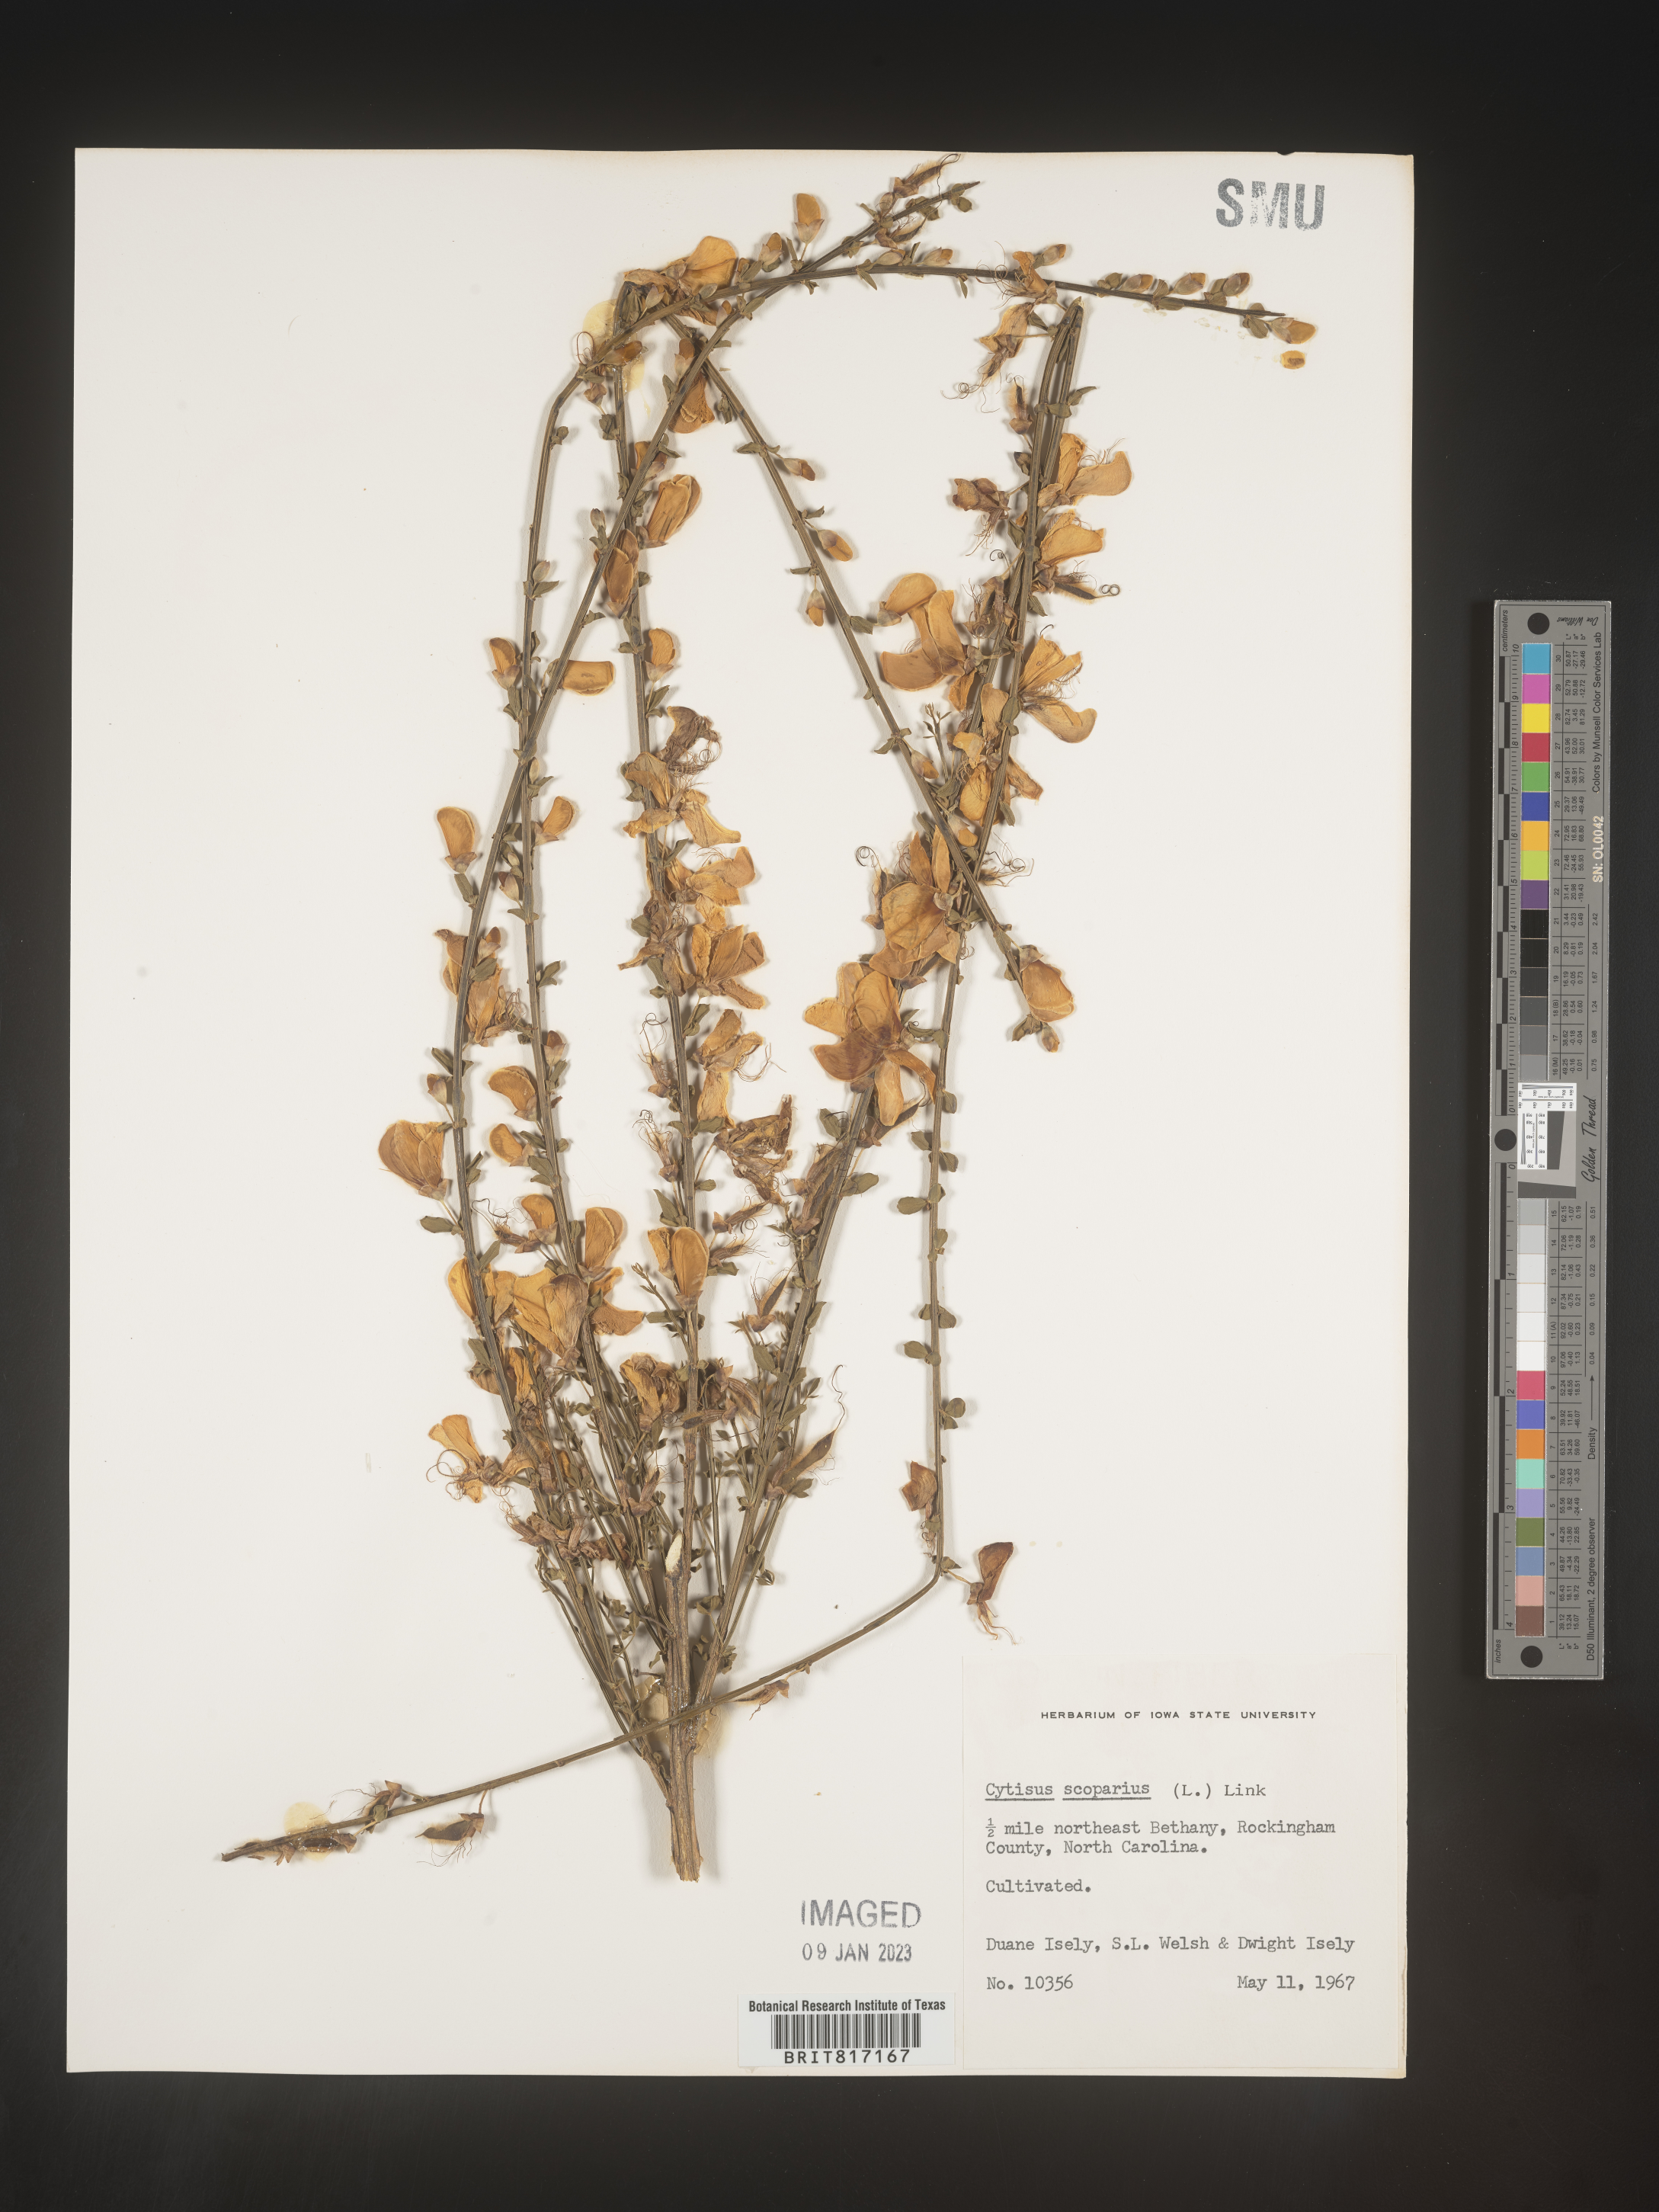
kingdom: Plantae
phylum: Tracheophyta
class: Magnoliopsida
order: Fabales
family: Fabaceae
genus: Cytisus
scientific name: Cytisus
